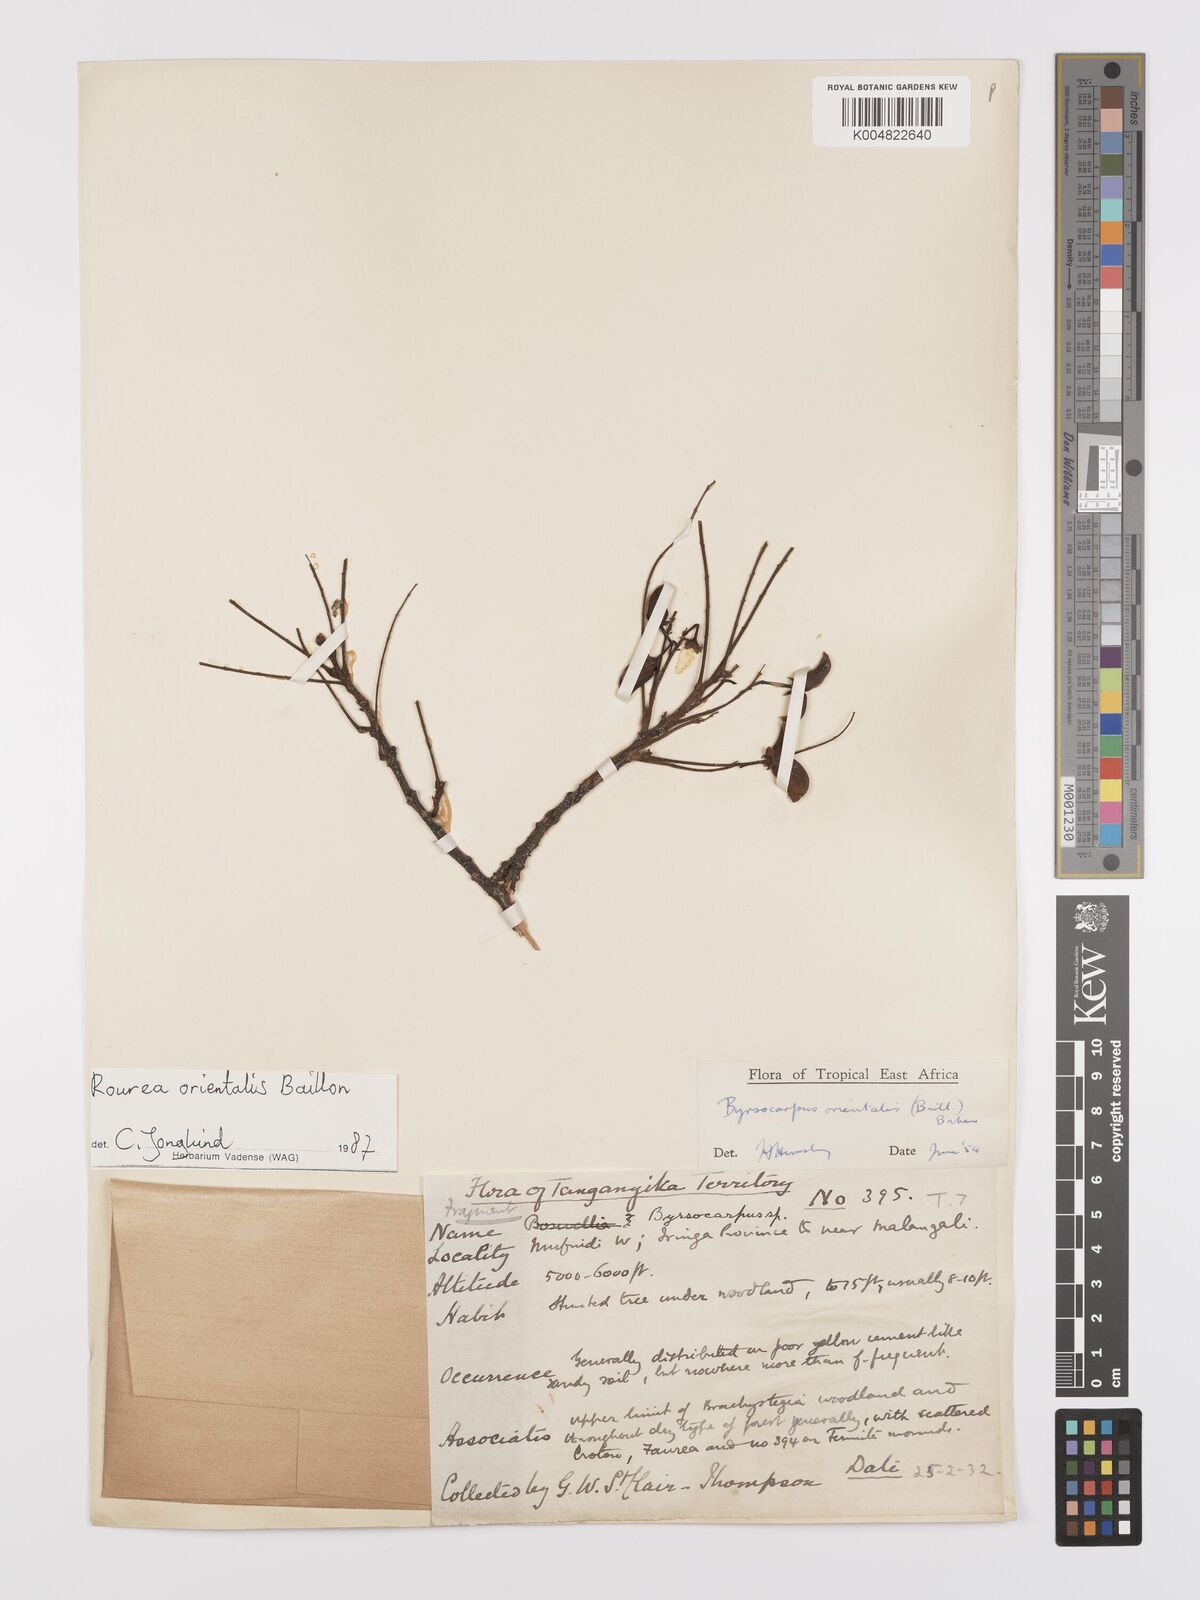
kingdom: Plantae
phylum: Tracheophyta
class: Magnoliopsida
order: Oxalidales
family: Connaraceae
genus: Rourea
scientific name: Rourea orientalis
